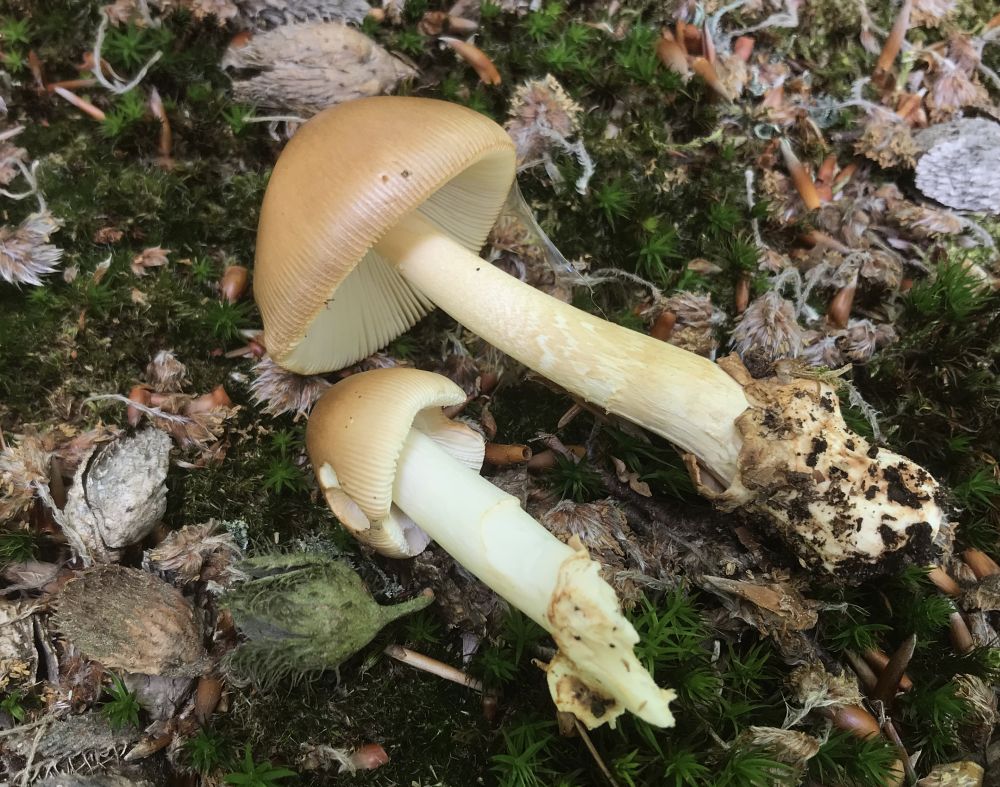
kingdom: Fungi
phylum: Basidiomycota
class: Agaricomycetes
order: Agaricales
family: Amanitaceae
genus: Amanita
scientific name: Amanita fulva
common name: brun kam-fluesvamp
